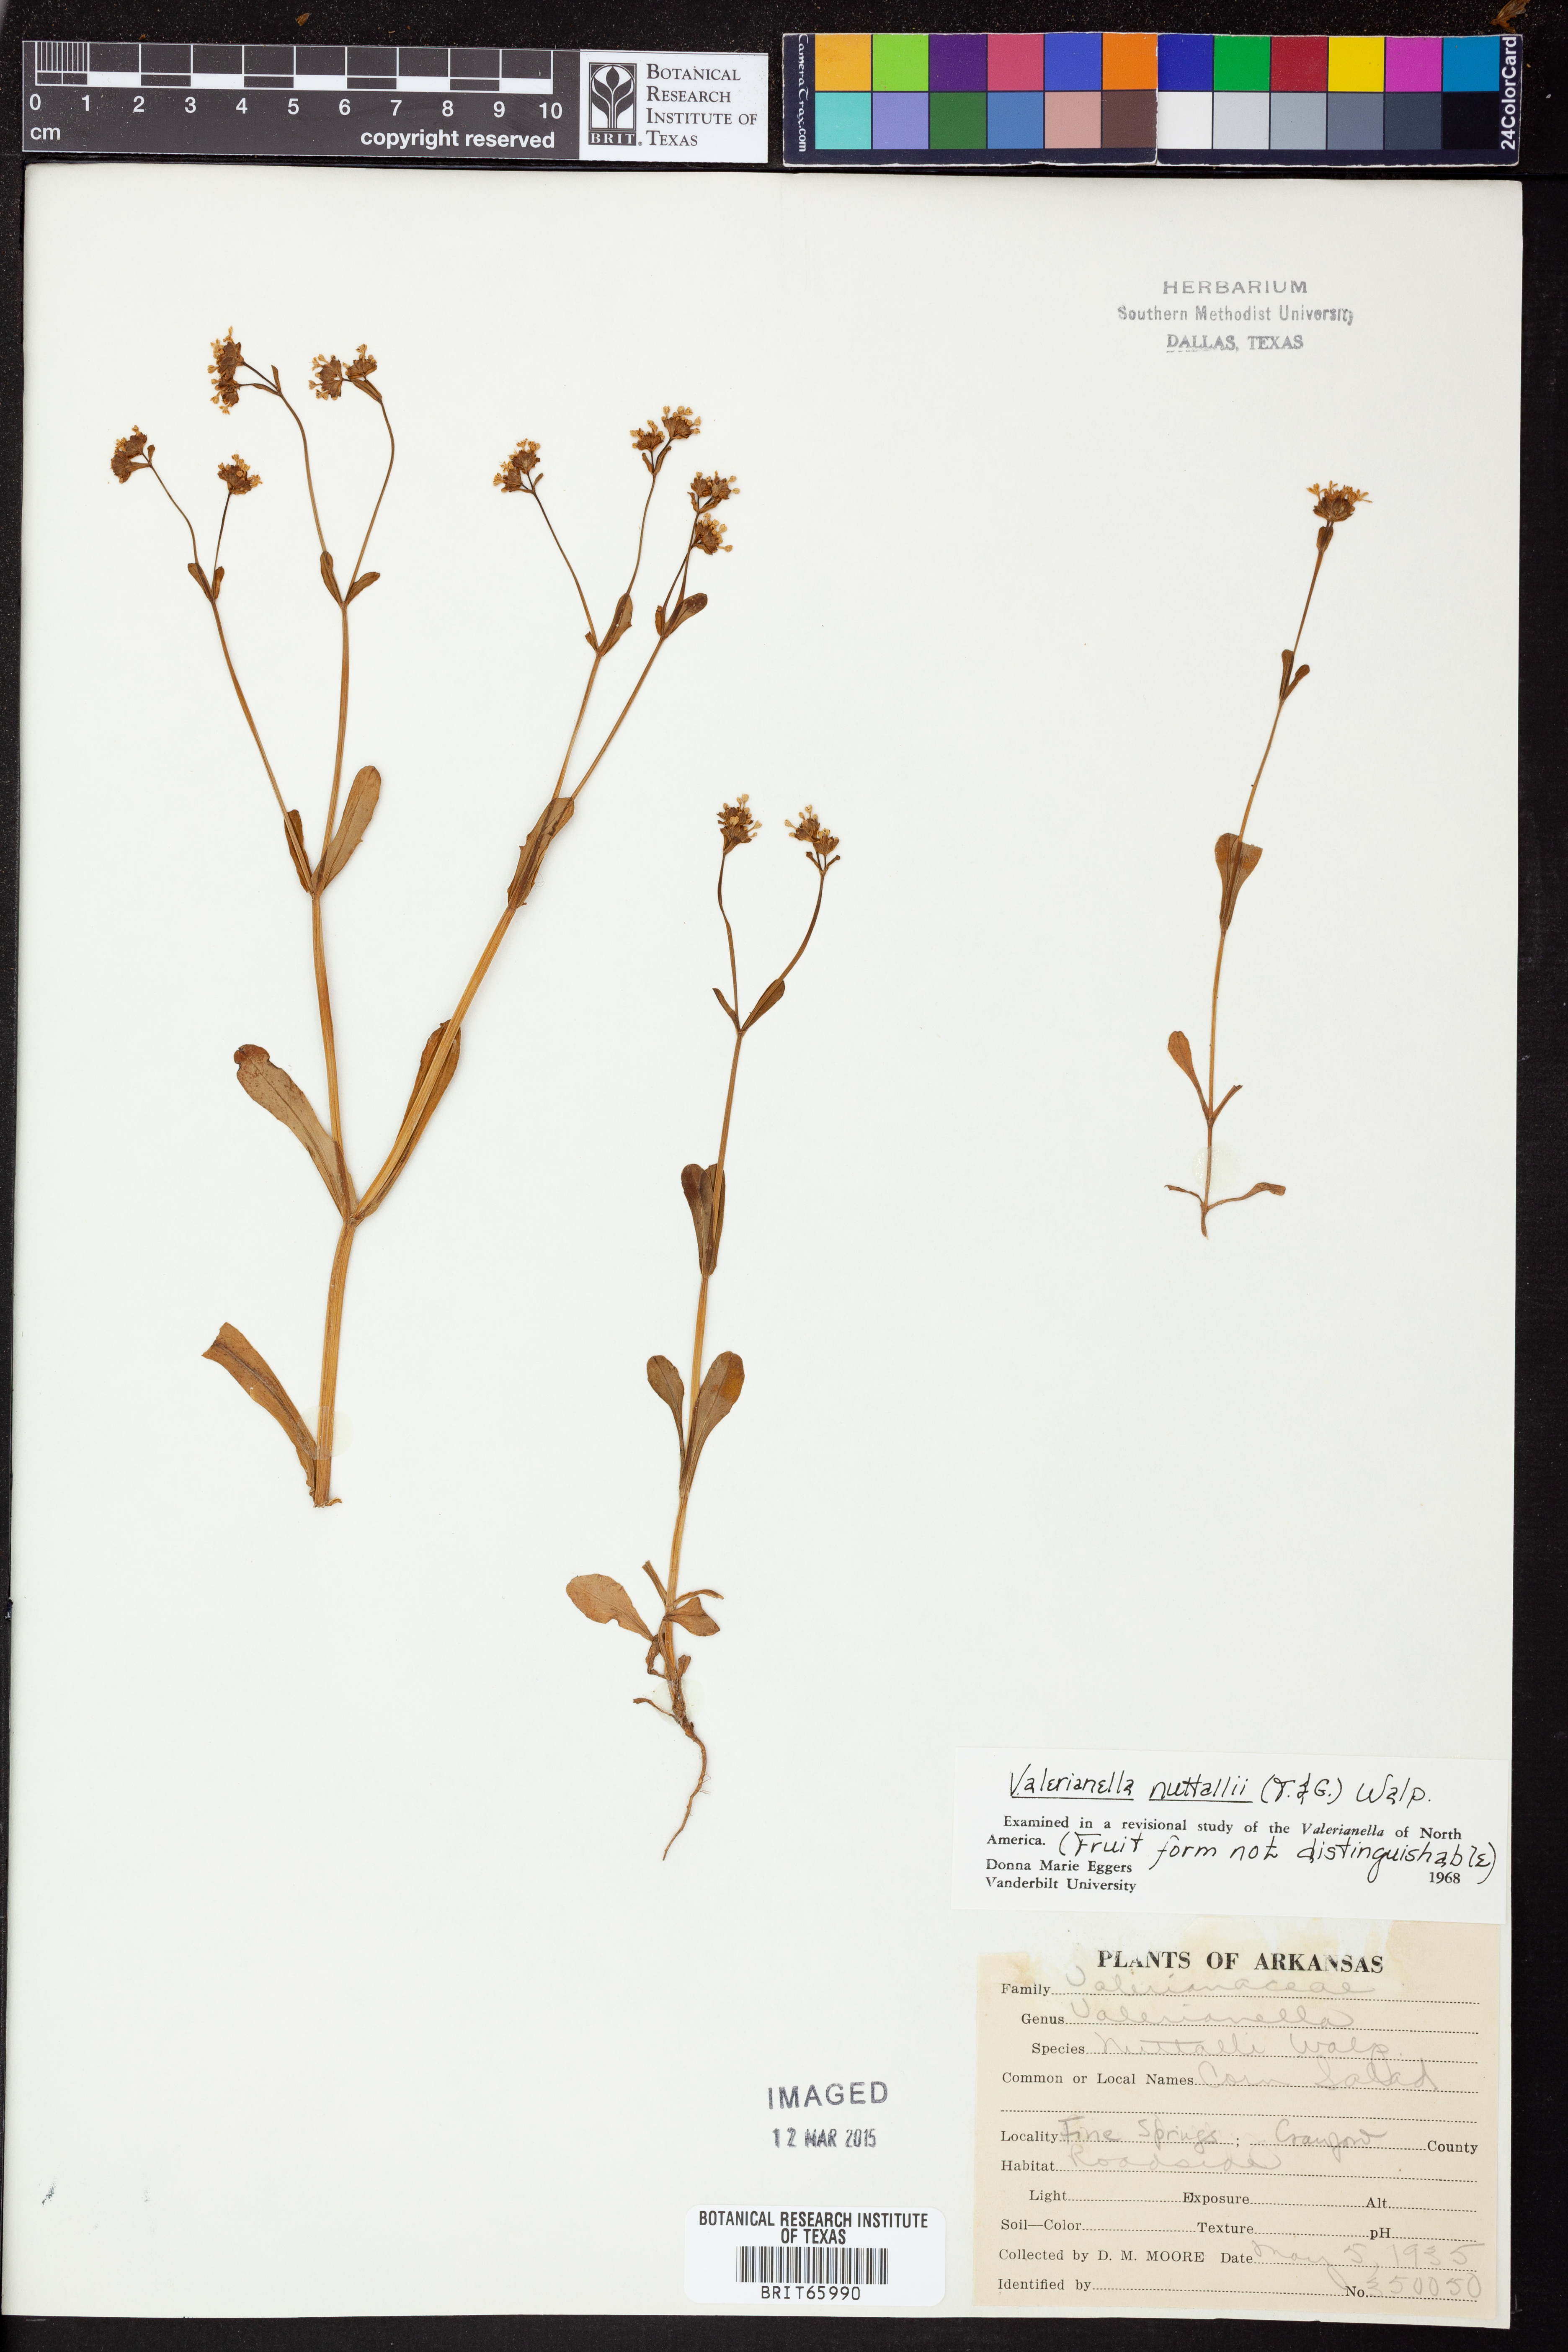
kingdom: Plantae
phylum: Tracheophyta
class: Magnoliopsida
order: Dipsacales
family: Caprifoliaceae
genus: Valerianella
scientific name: Valerianella nuttallii
